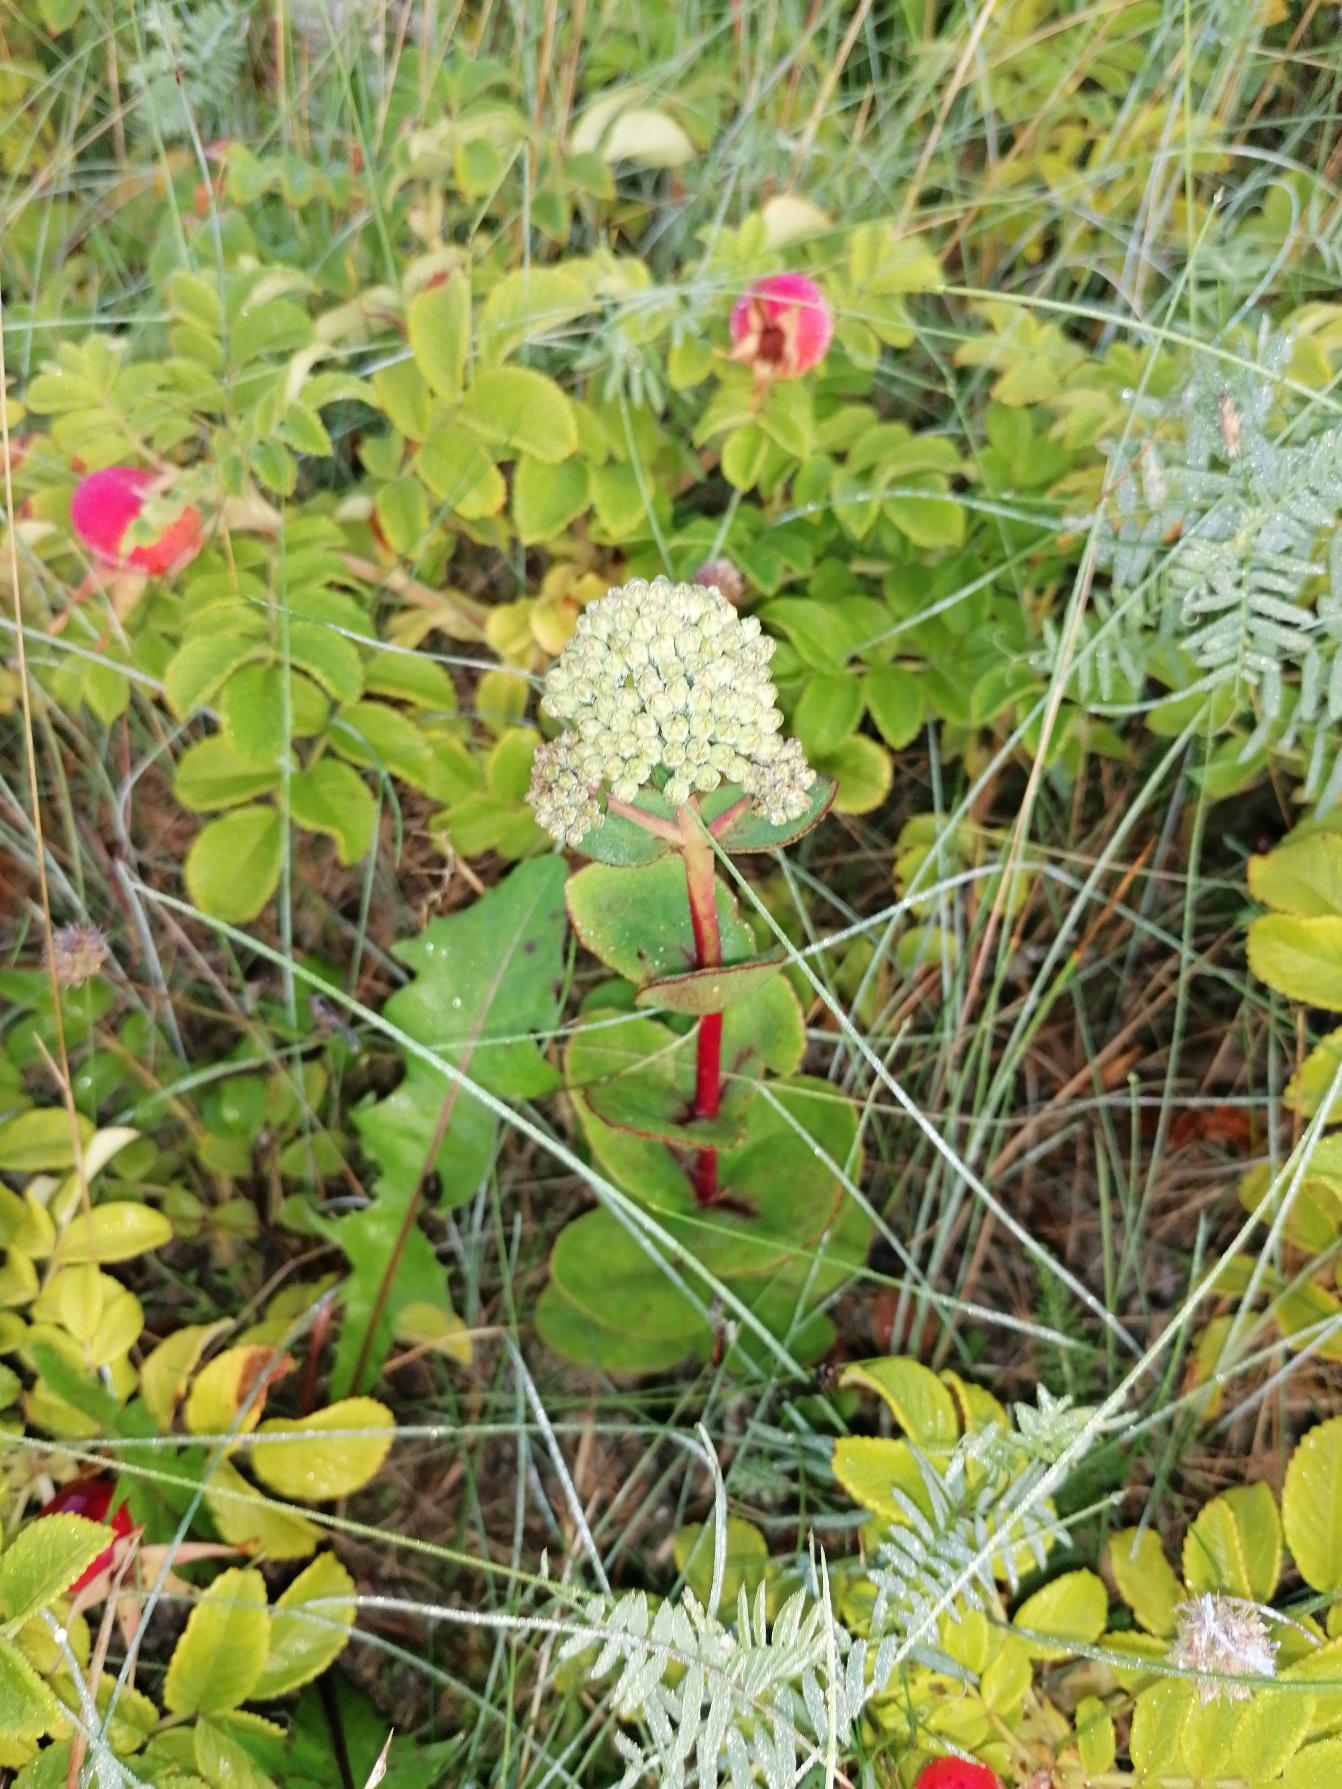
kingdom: Plantae
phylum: Tracheophyta
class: Magnoliopsida
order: Saxifragales
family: Crassulaceae
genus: Hylotelephium
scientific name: Hylotelephium maximum
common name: Almindelig sankthansurt
